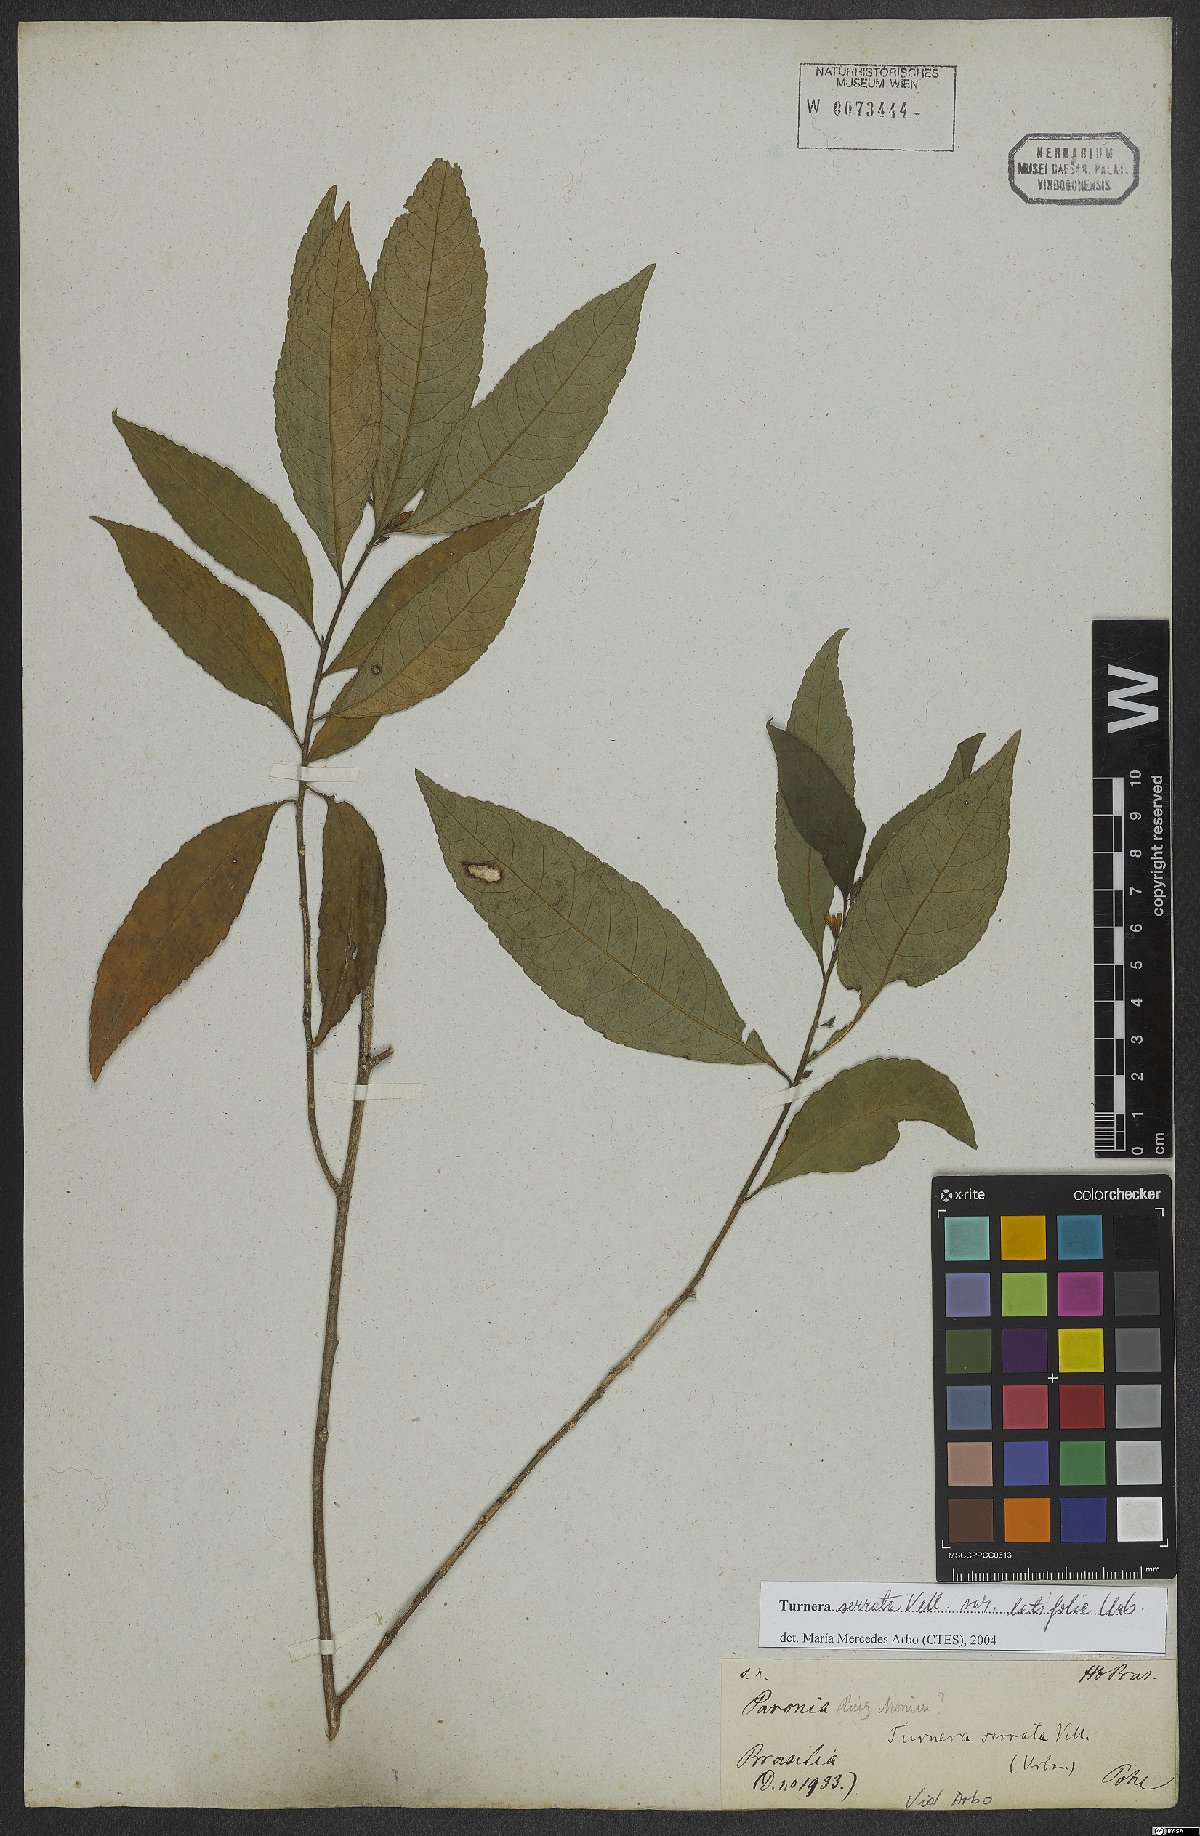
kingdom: Plantae
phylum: Tracheophyta
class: Magnoliopsida
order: Malpighiales
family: Turneraceae
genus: Turnera
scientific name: Turnera serrata
